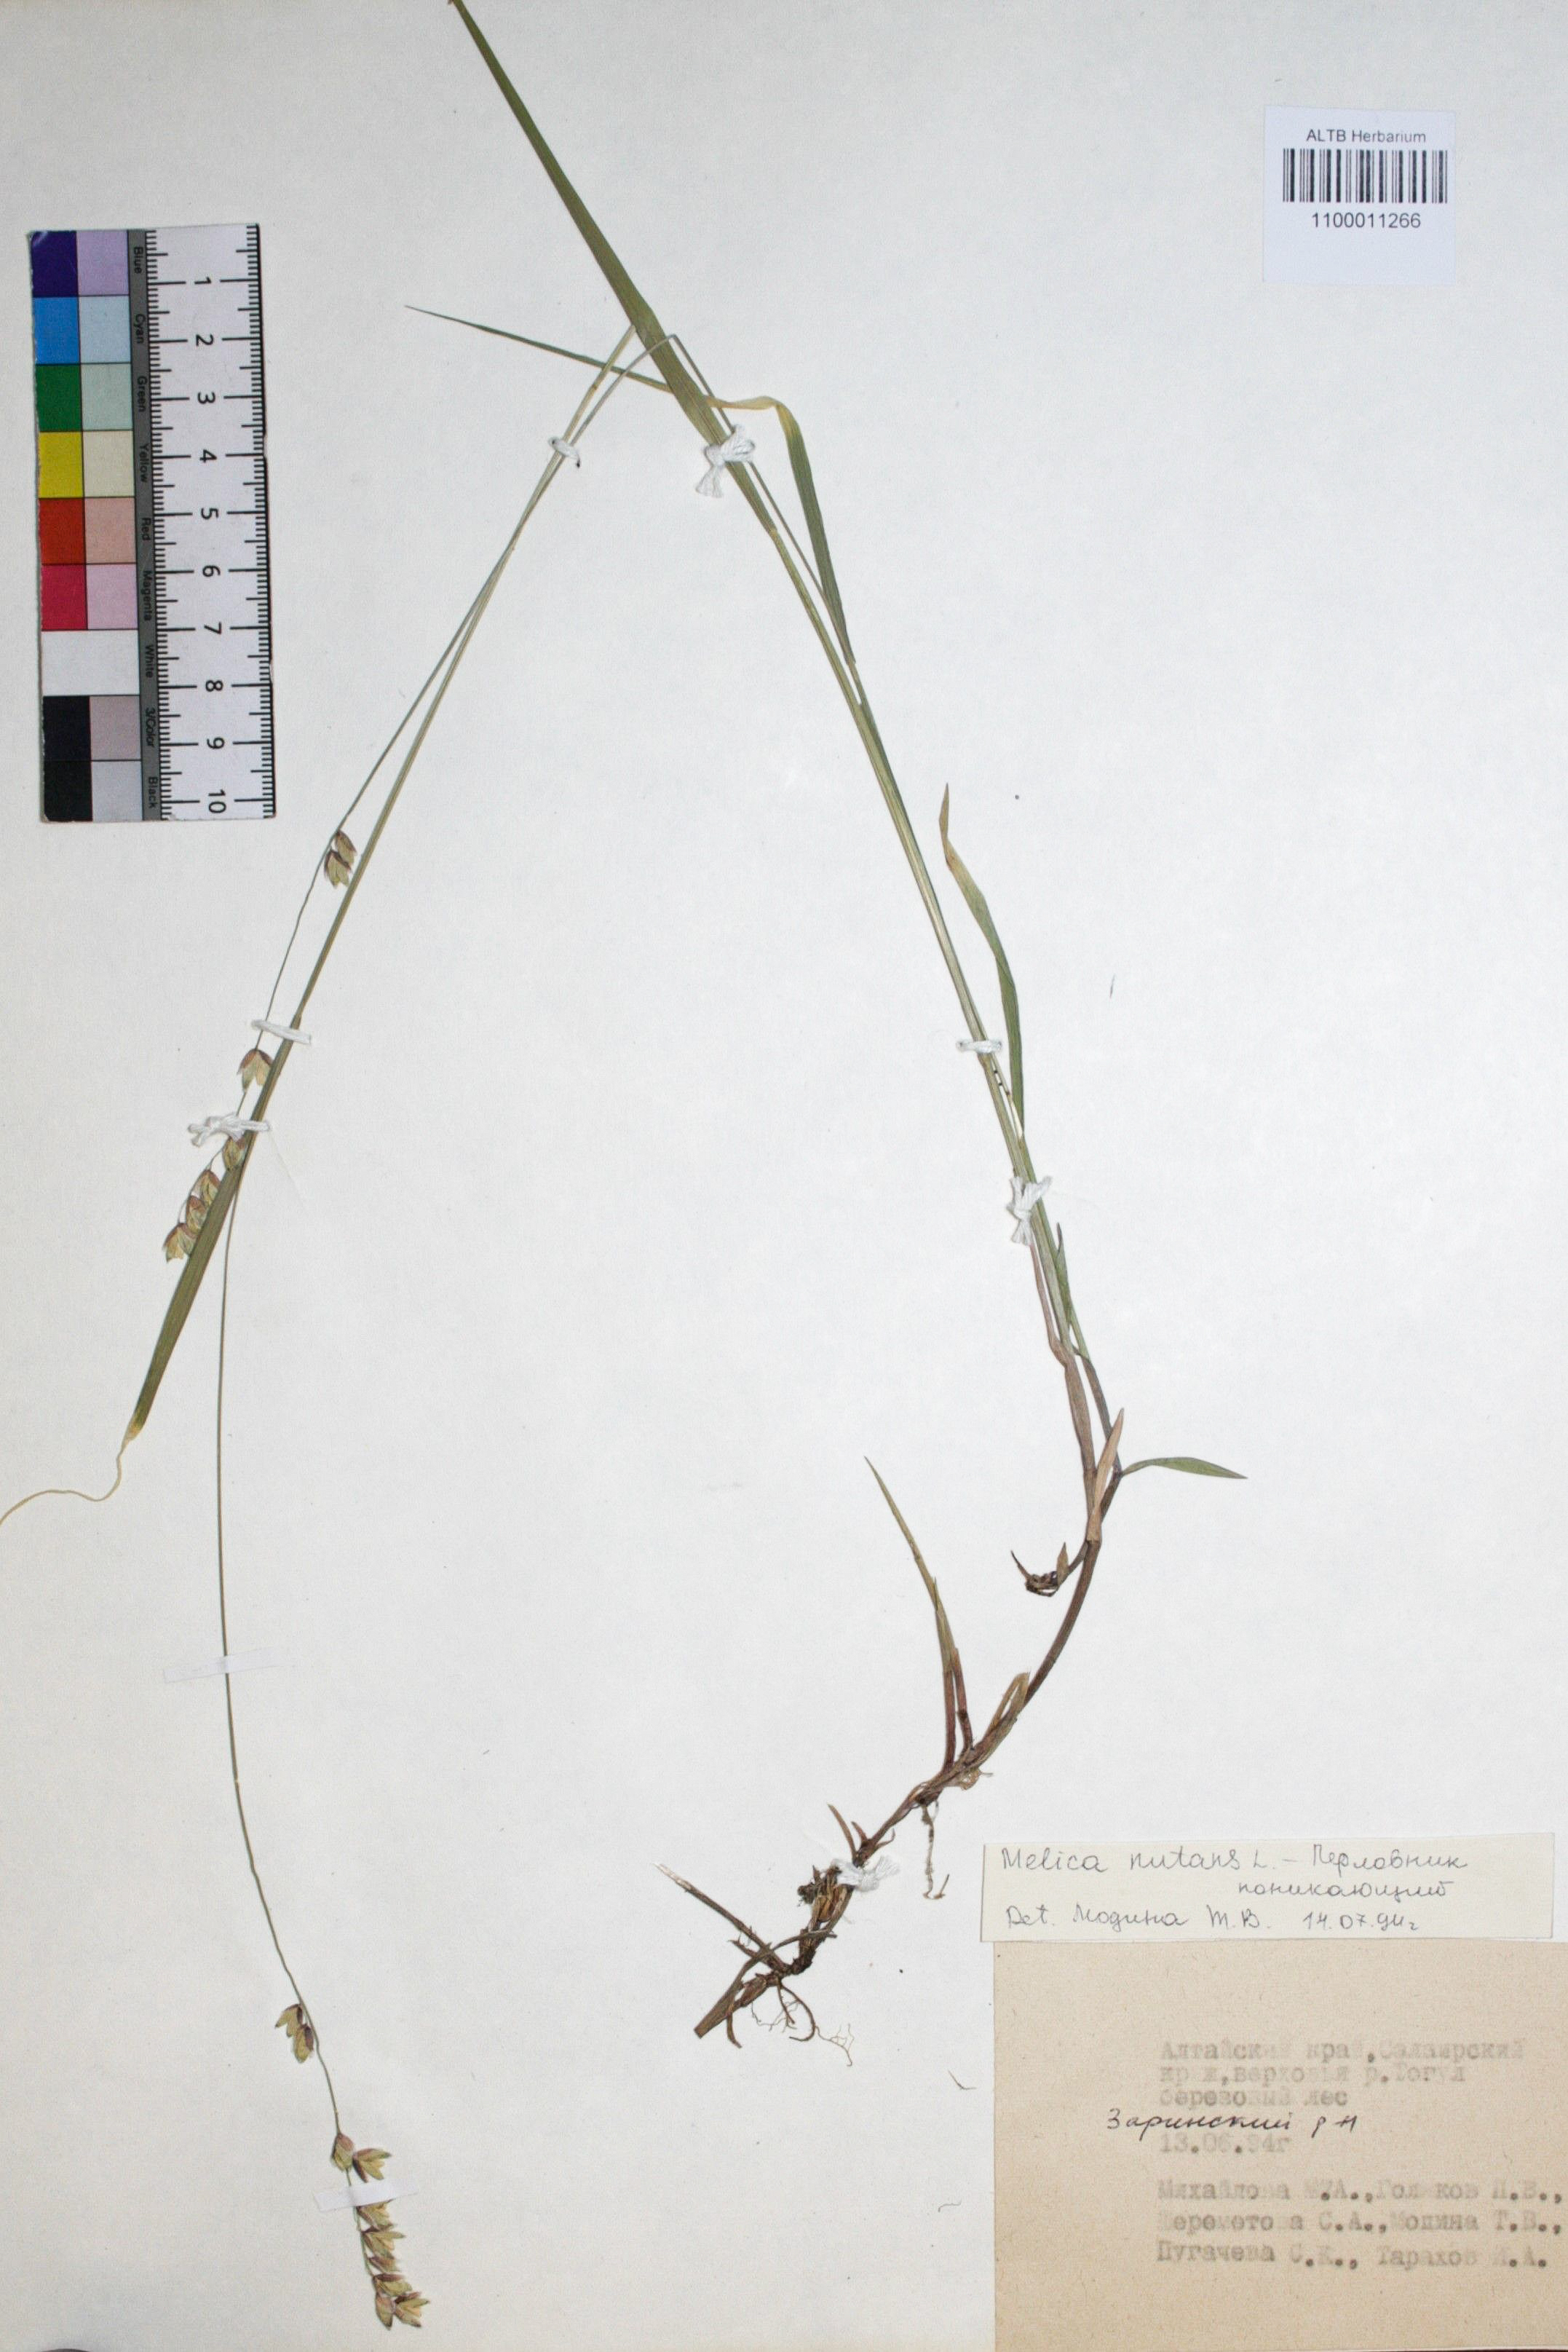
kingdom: Plantae
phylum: Tracheophyta
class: Liliopsida
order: Poales
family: Poaceae
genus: Melica
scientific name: Melica nutans
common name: Mountain melick
